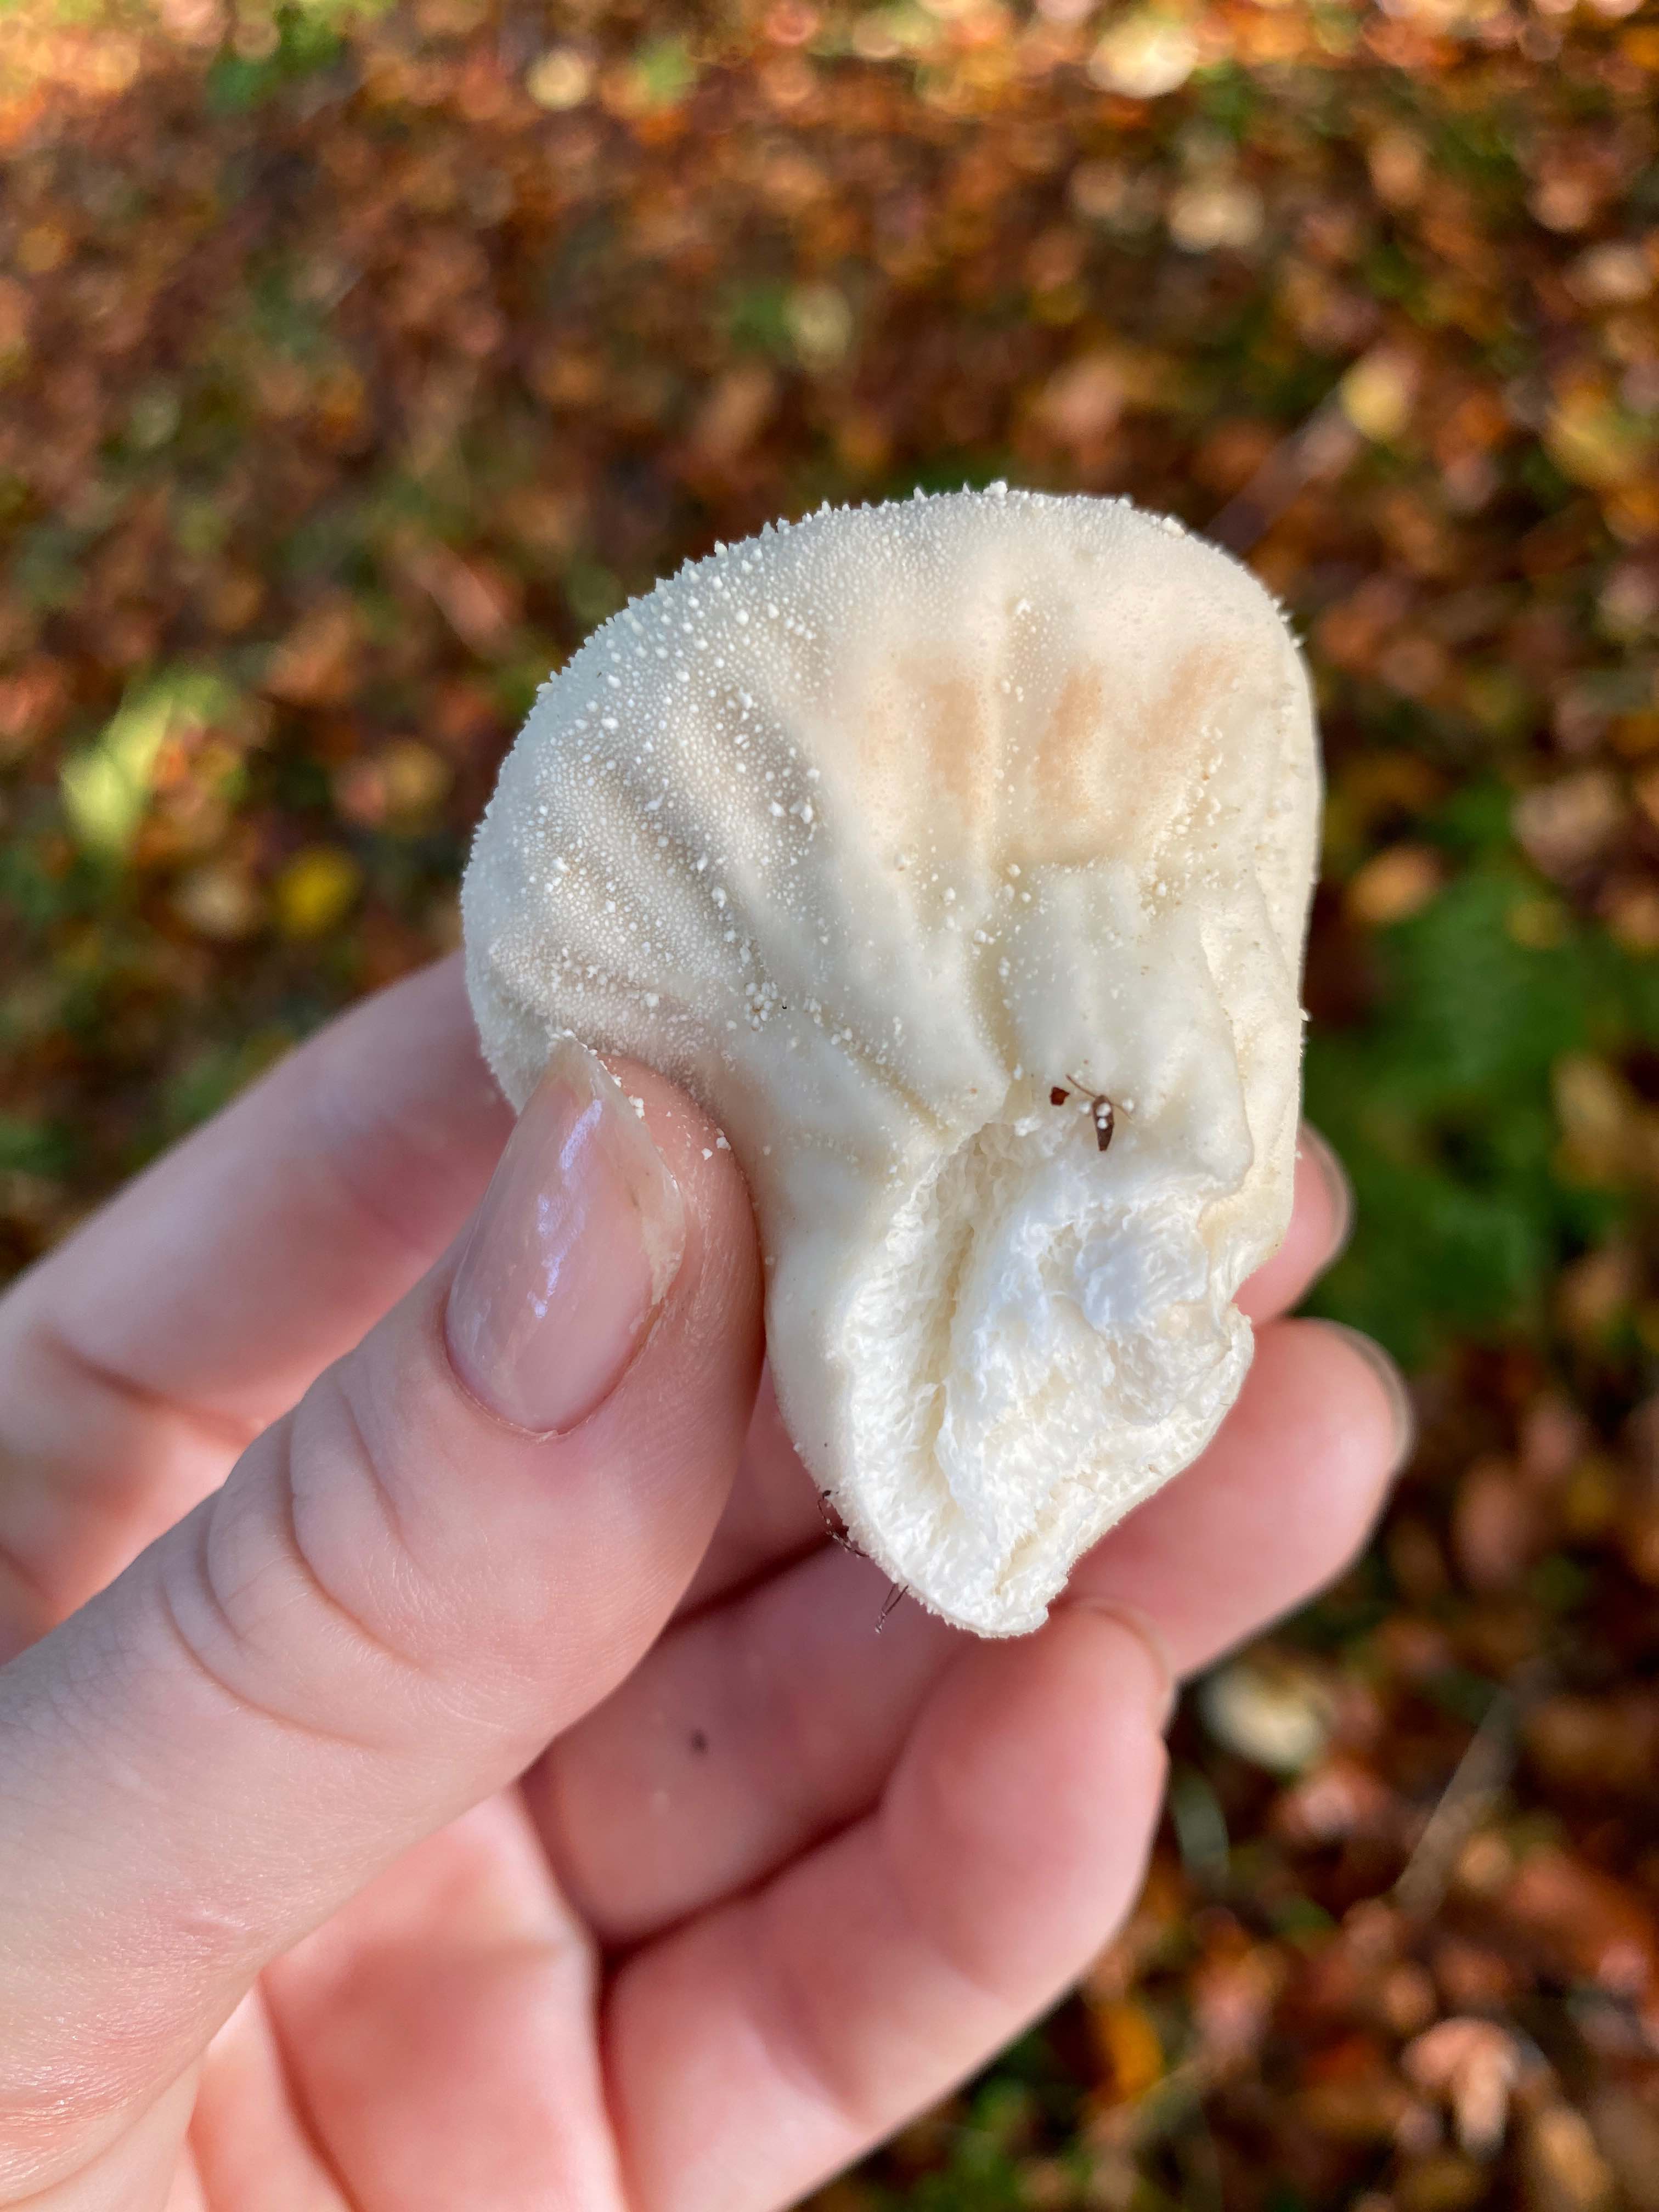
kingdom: Fungi
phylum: Basidiomycota
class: Agaricomycetes
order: Agaricales
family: Lycoperdaceae
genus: Lycoperdon
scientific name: Lycoperdon perlatum
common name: krystal-støvbold
